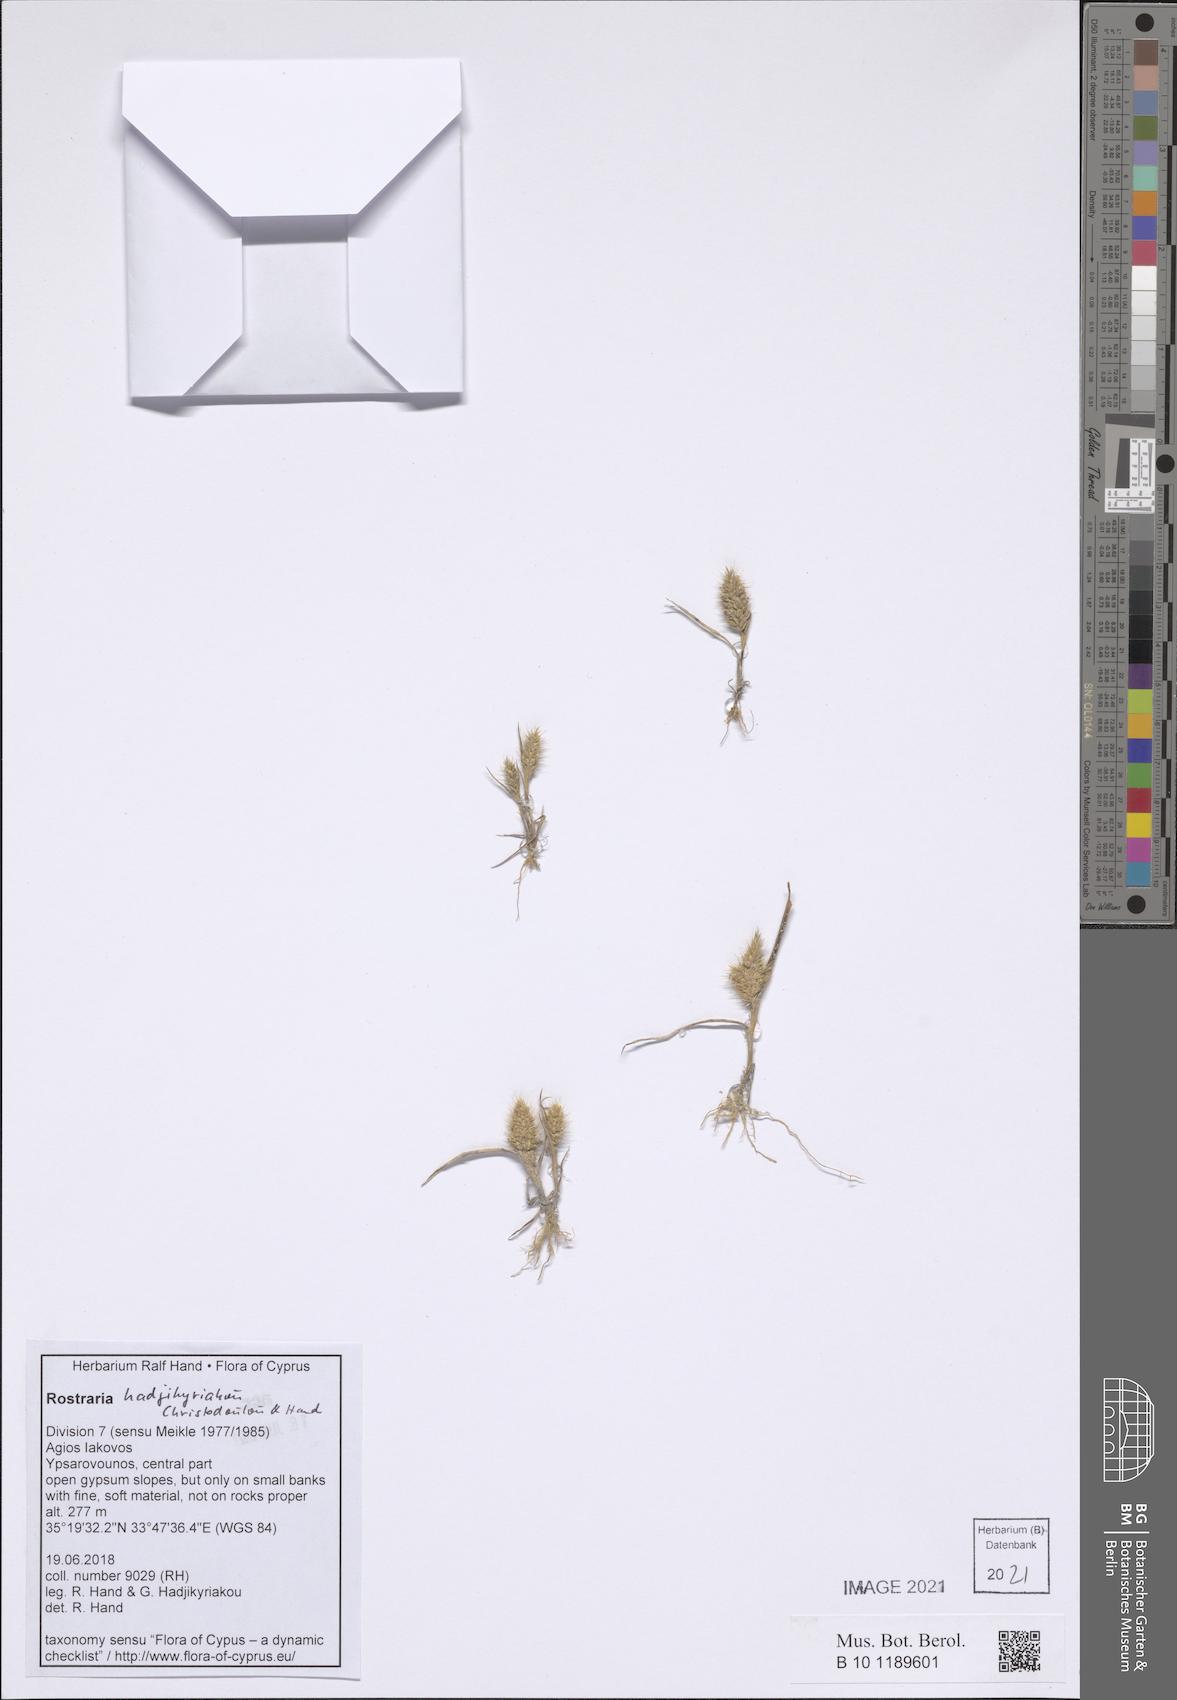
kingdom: Plantae
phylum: Tracheophyta
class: Liliopsida
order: Poales
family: Poaceae
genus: Rostraria
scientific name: Rostraria
